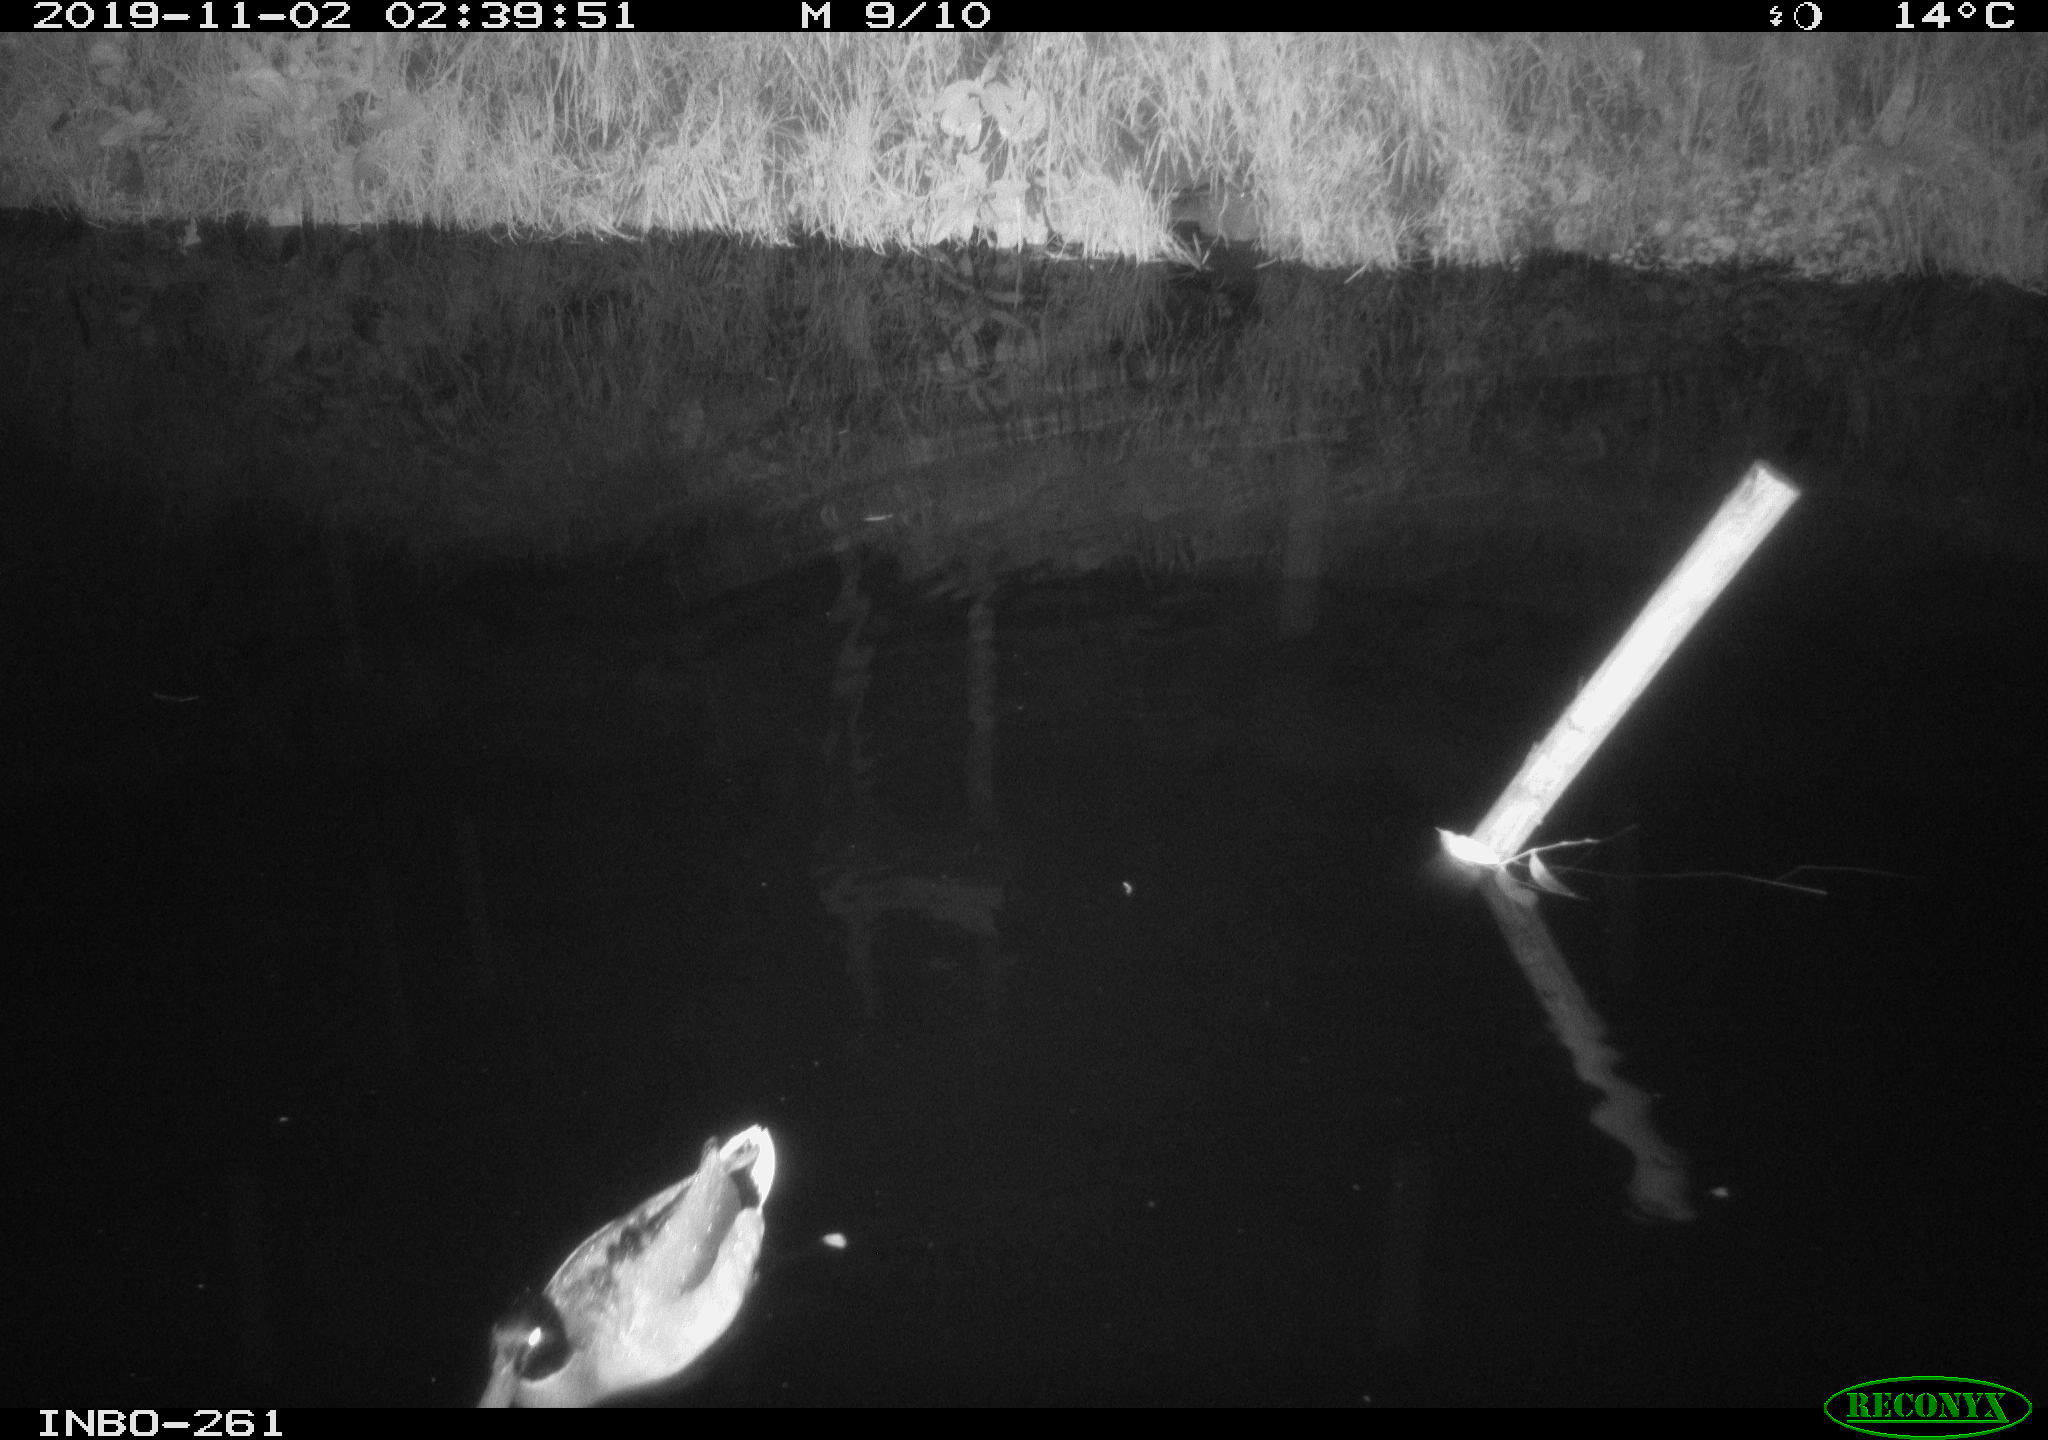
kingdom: Animalia
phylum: Chordata
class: Aves
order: Anseriformes
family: Anatidae
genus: Anas
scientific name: Anas platyrhynchos
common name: Mallard
